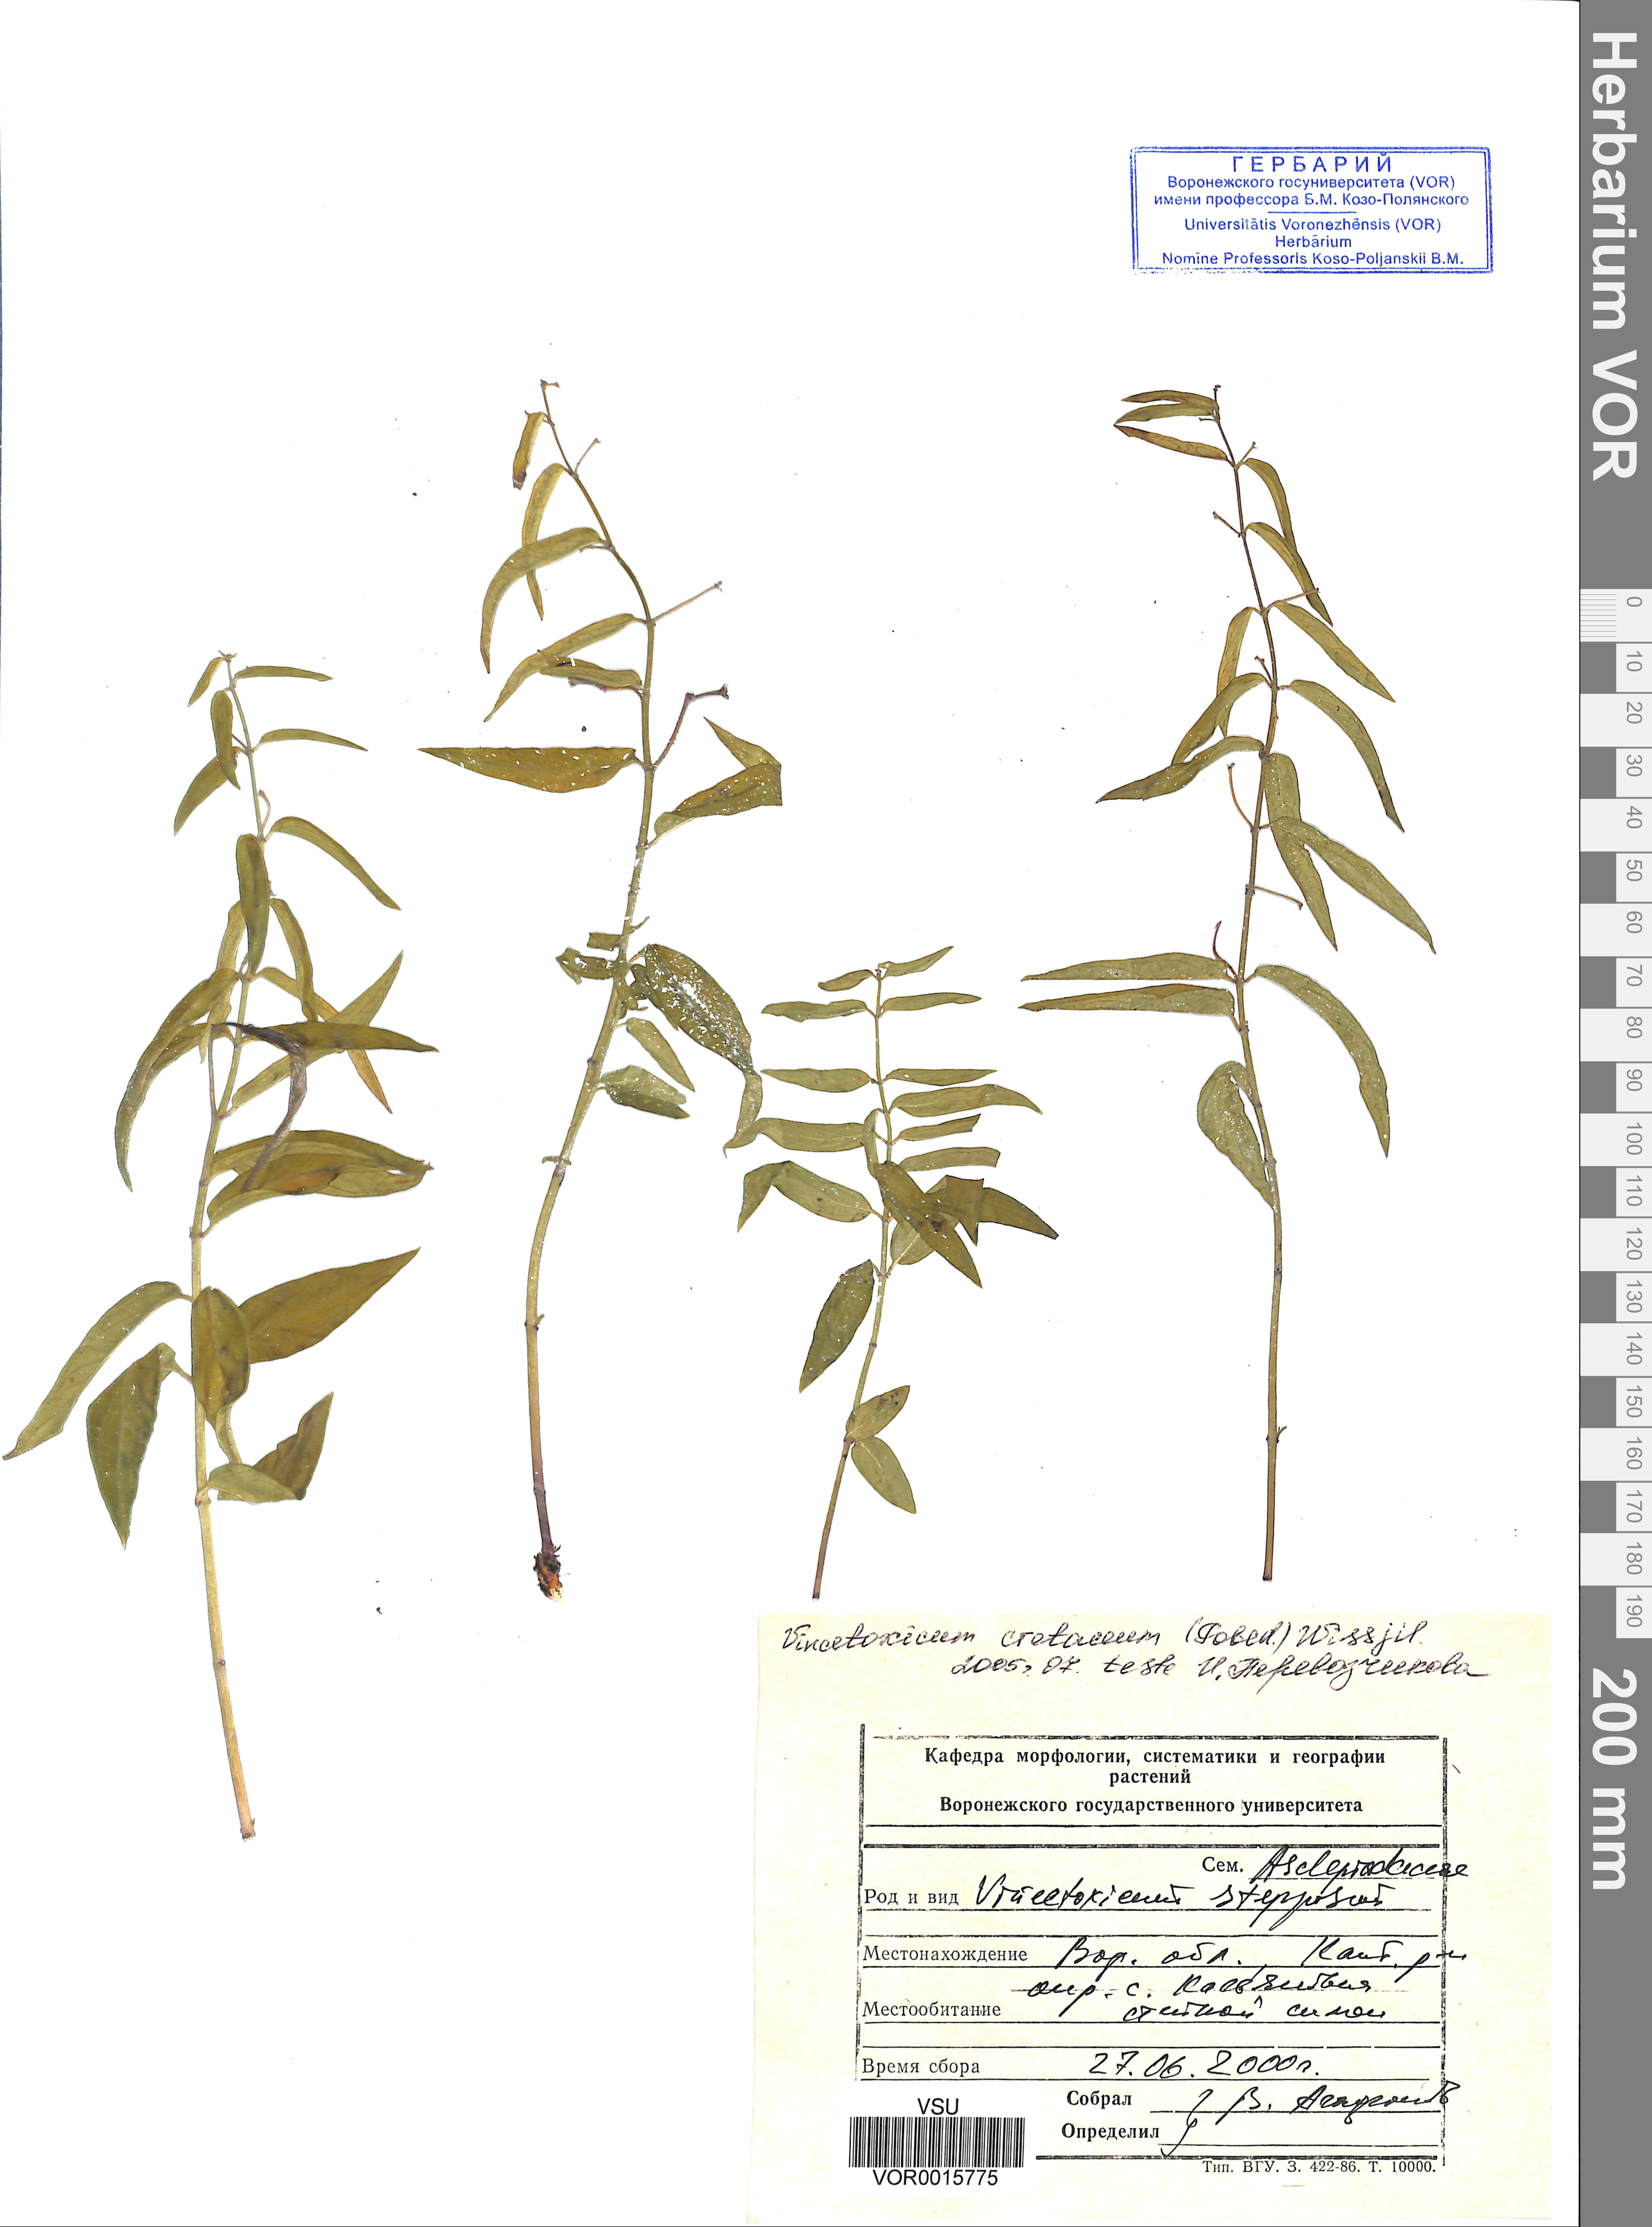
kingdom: Plantae
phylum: Tracheophyta
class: Magnoliopsida
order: Gentianales
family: Apocynaceae
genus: Vincetoxicum
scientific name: Vincetoxicum hirundinaria
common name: White swallowwort
